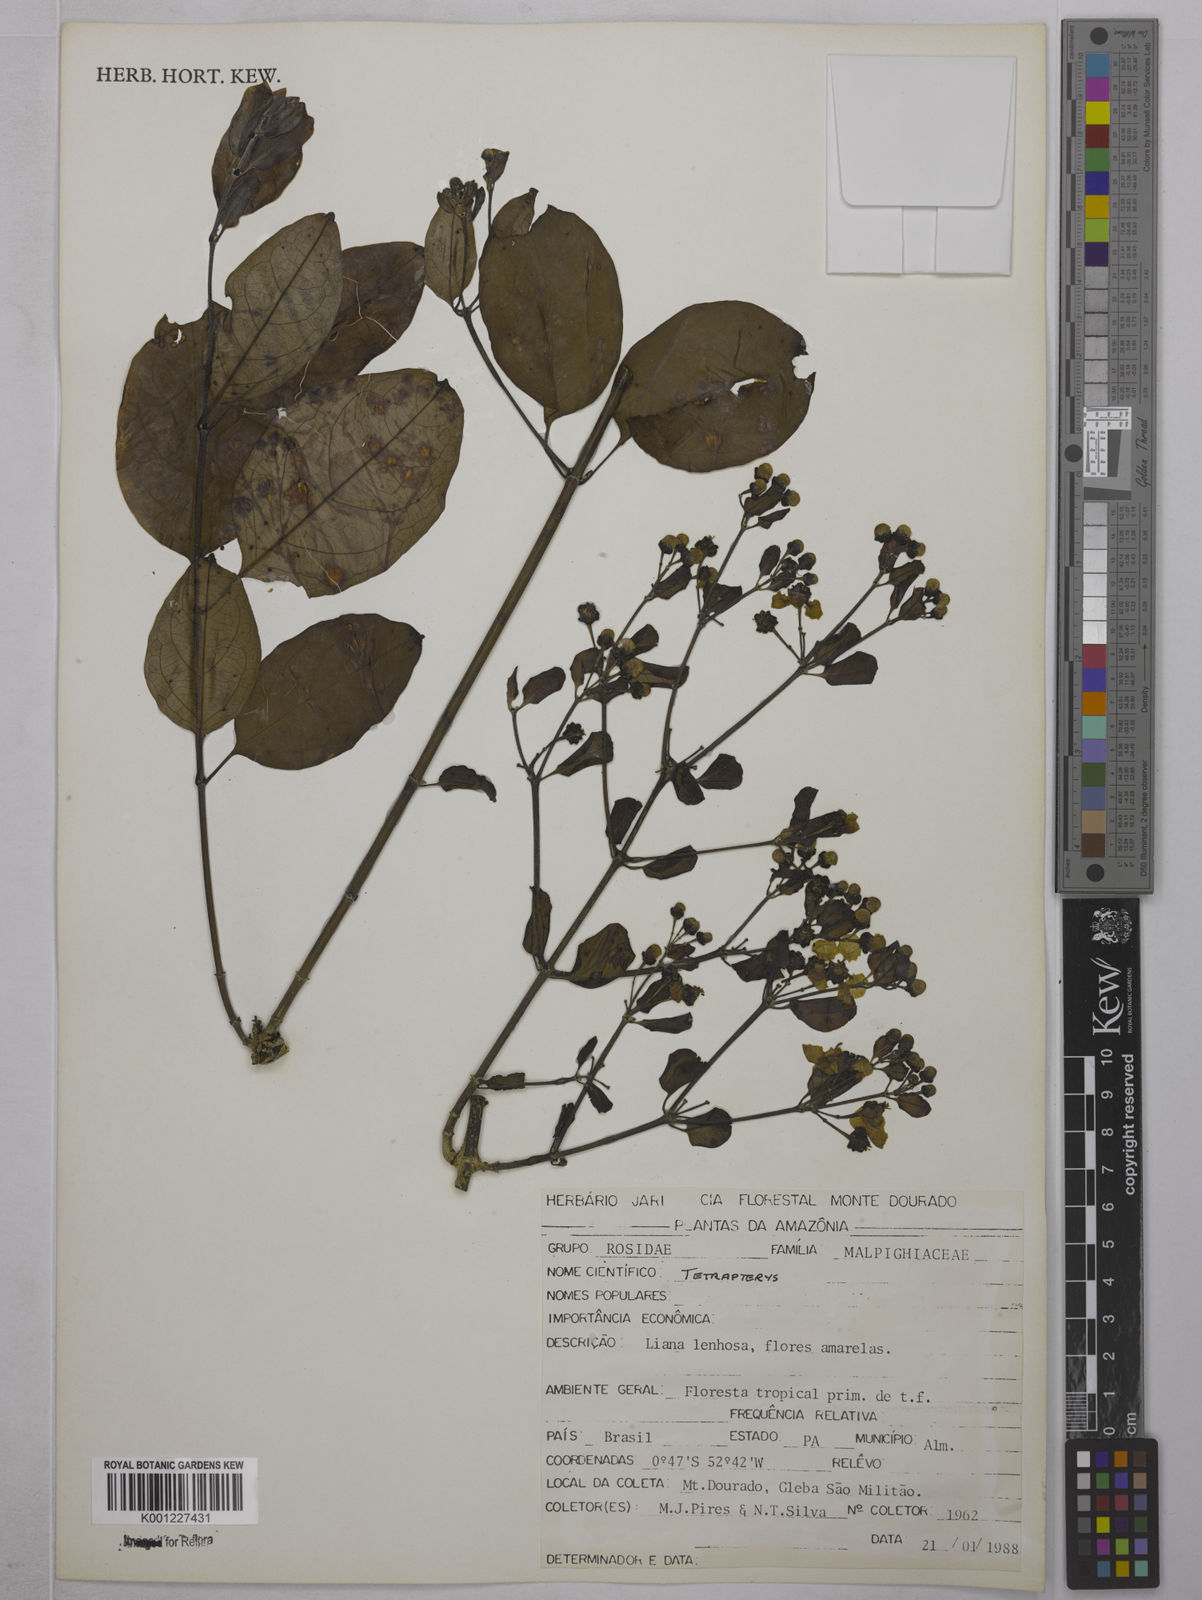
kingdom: Plantae
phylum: Tracheophyta
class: Magnoliopsida
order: Malpighiales
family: Malpighiaceae
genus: Tetrapterys
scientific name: Tetrapterys
